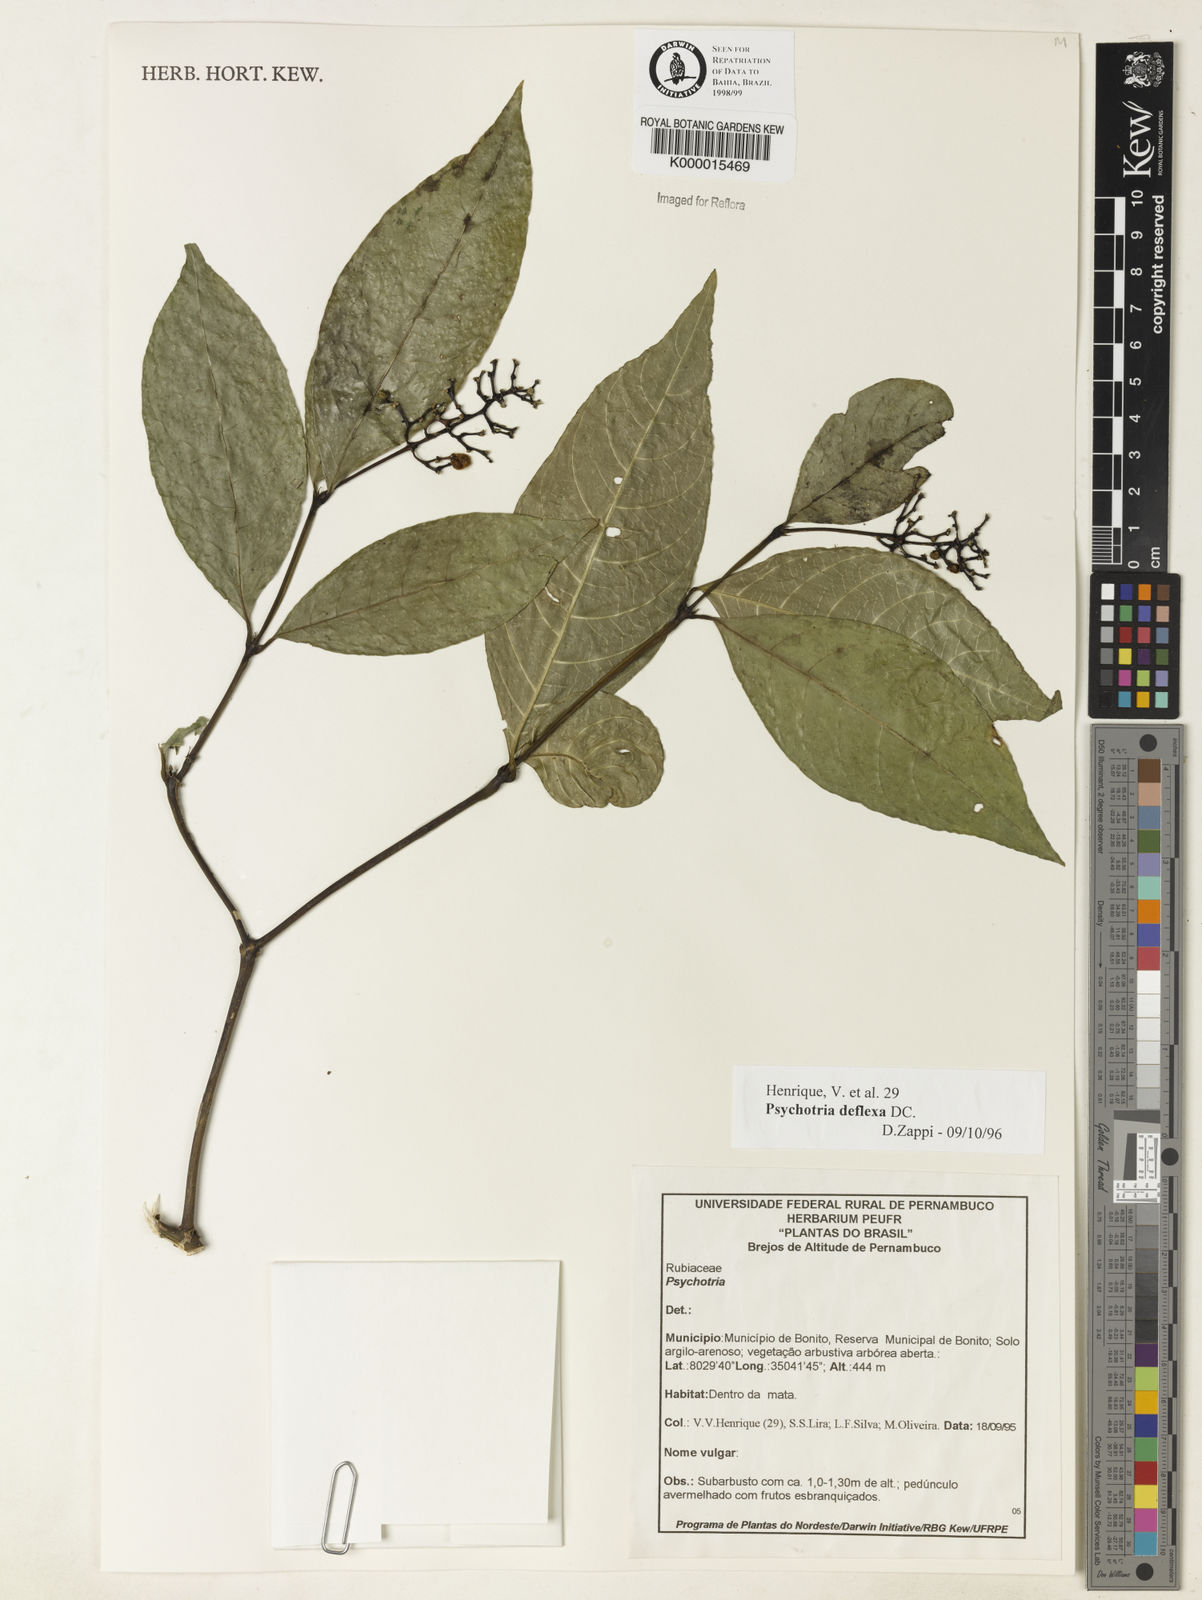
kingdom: Plantae
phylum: Tracheophyta
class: Magnoliopsida
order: Gentianales
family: Rubiaceae
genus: Palicourea
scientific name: Palicourea deflexa
